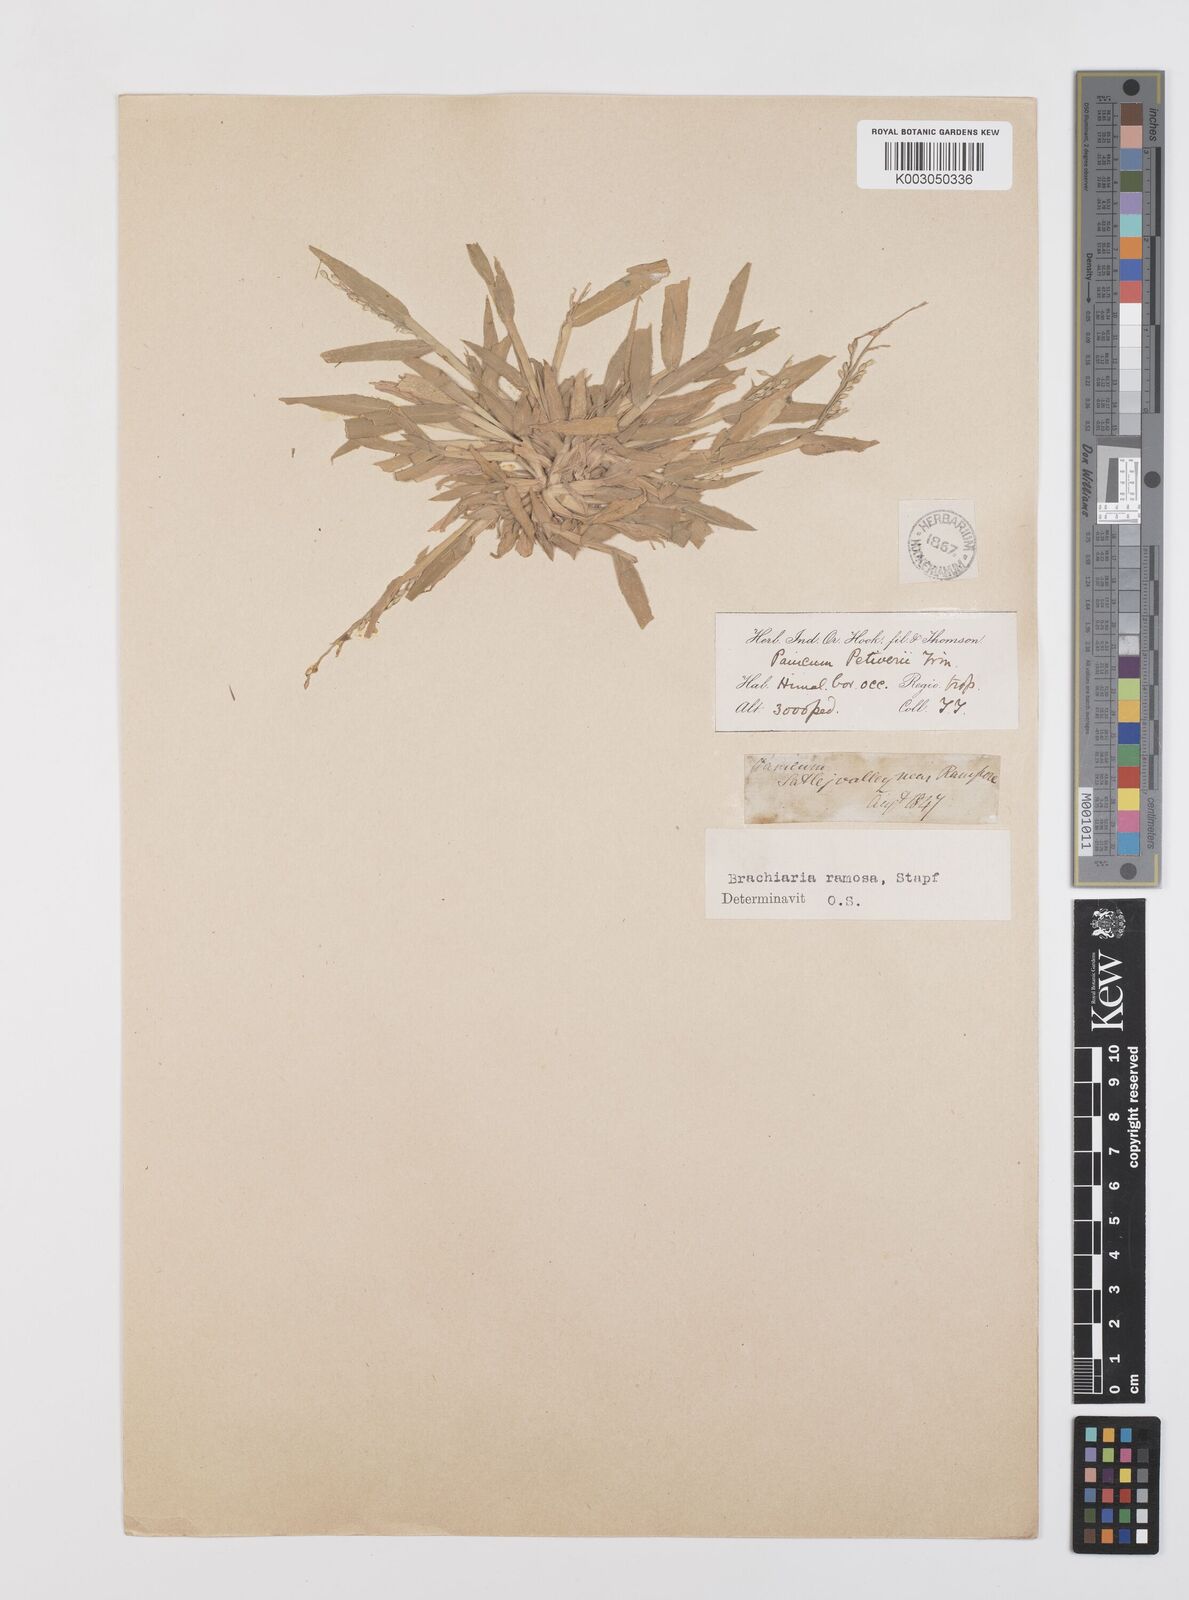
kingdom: Plantae
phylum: Tracheophyta
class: Liliopsida
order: Poales
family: Poaceae
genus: Urochloa
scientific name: Urochloa ramosa
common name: Browntop millet
